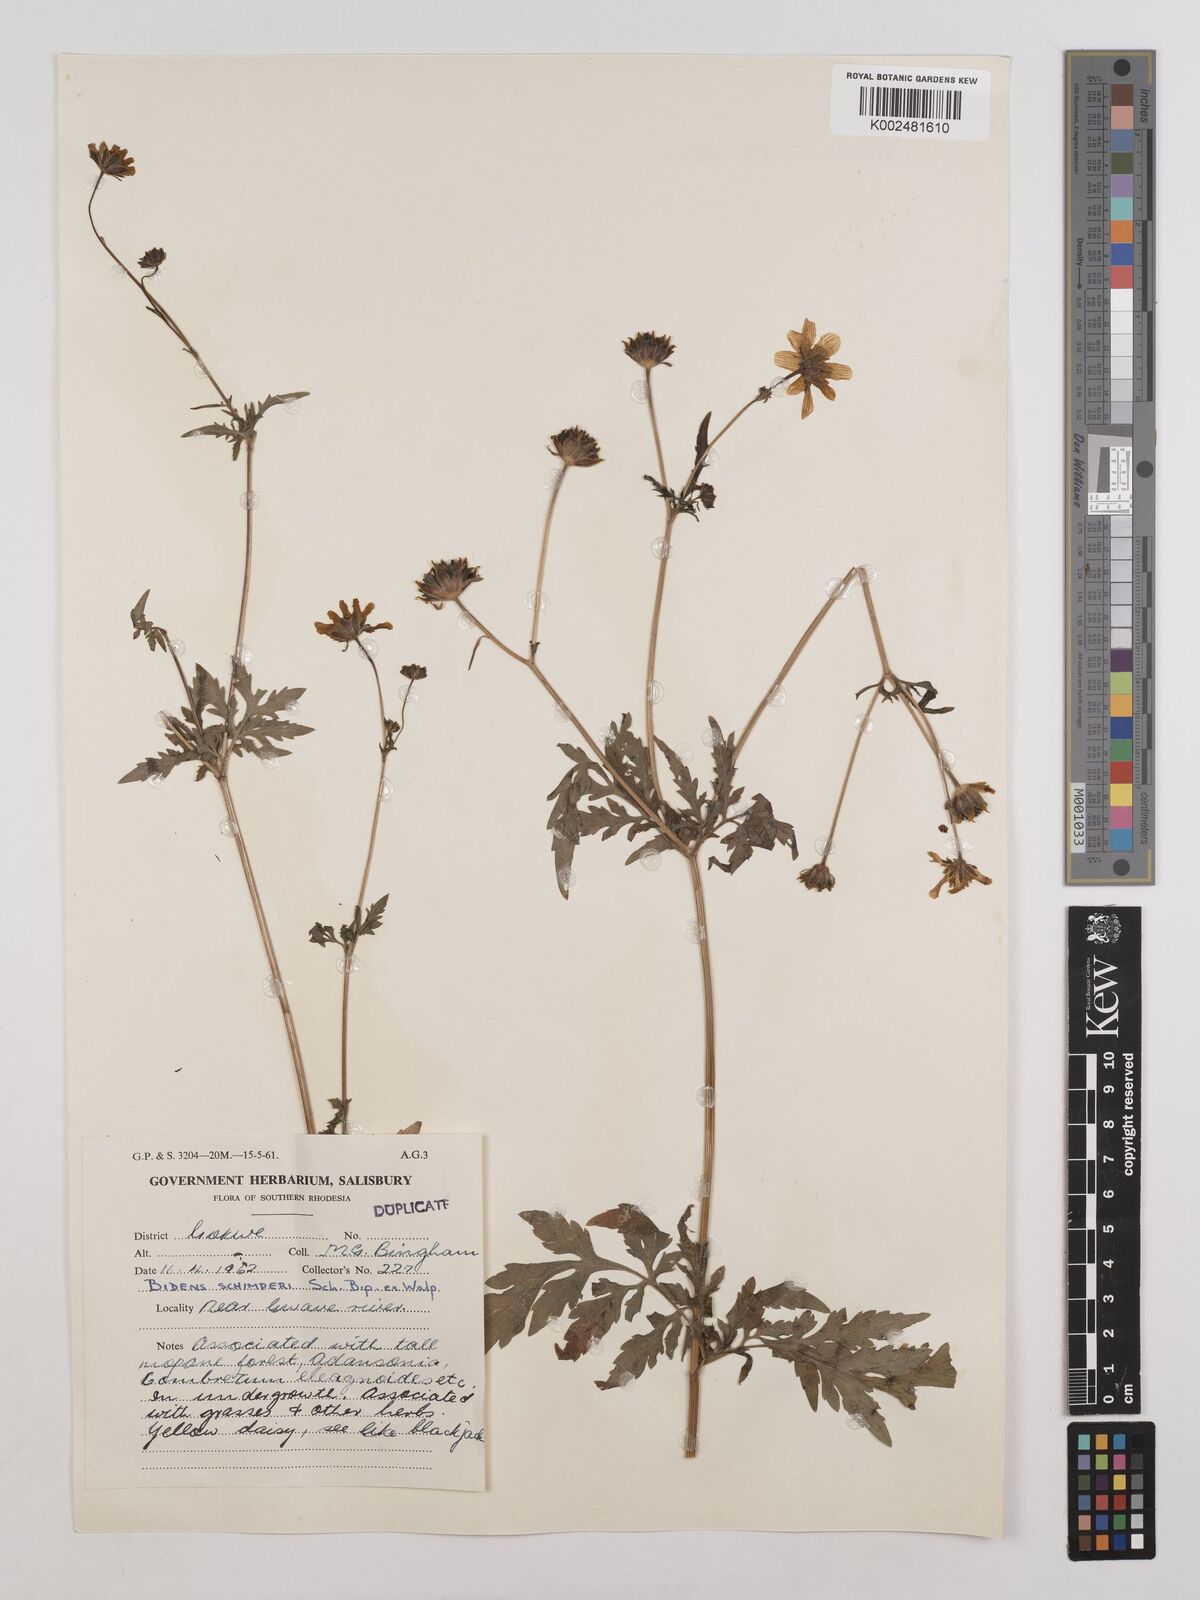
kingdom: Plantae
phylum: Tracheophyta
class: Magnoliopsida
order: Asterales
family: Asteraceae
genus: Bidens
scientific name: Bidens schimperi
